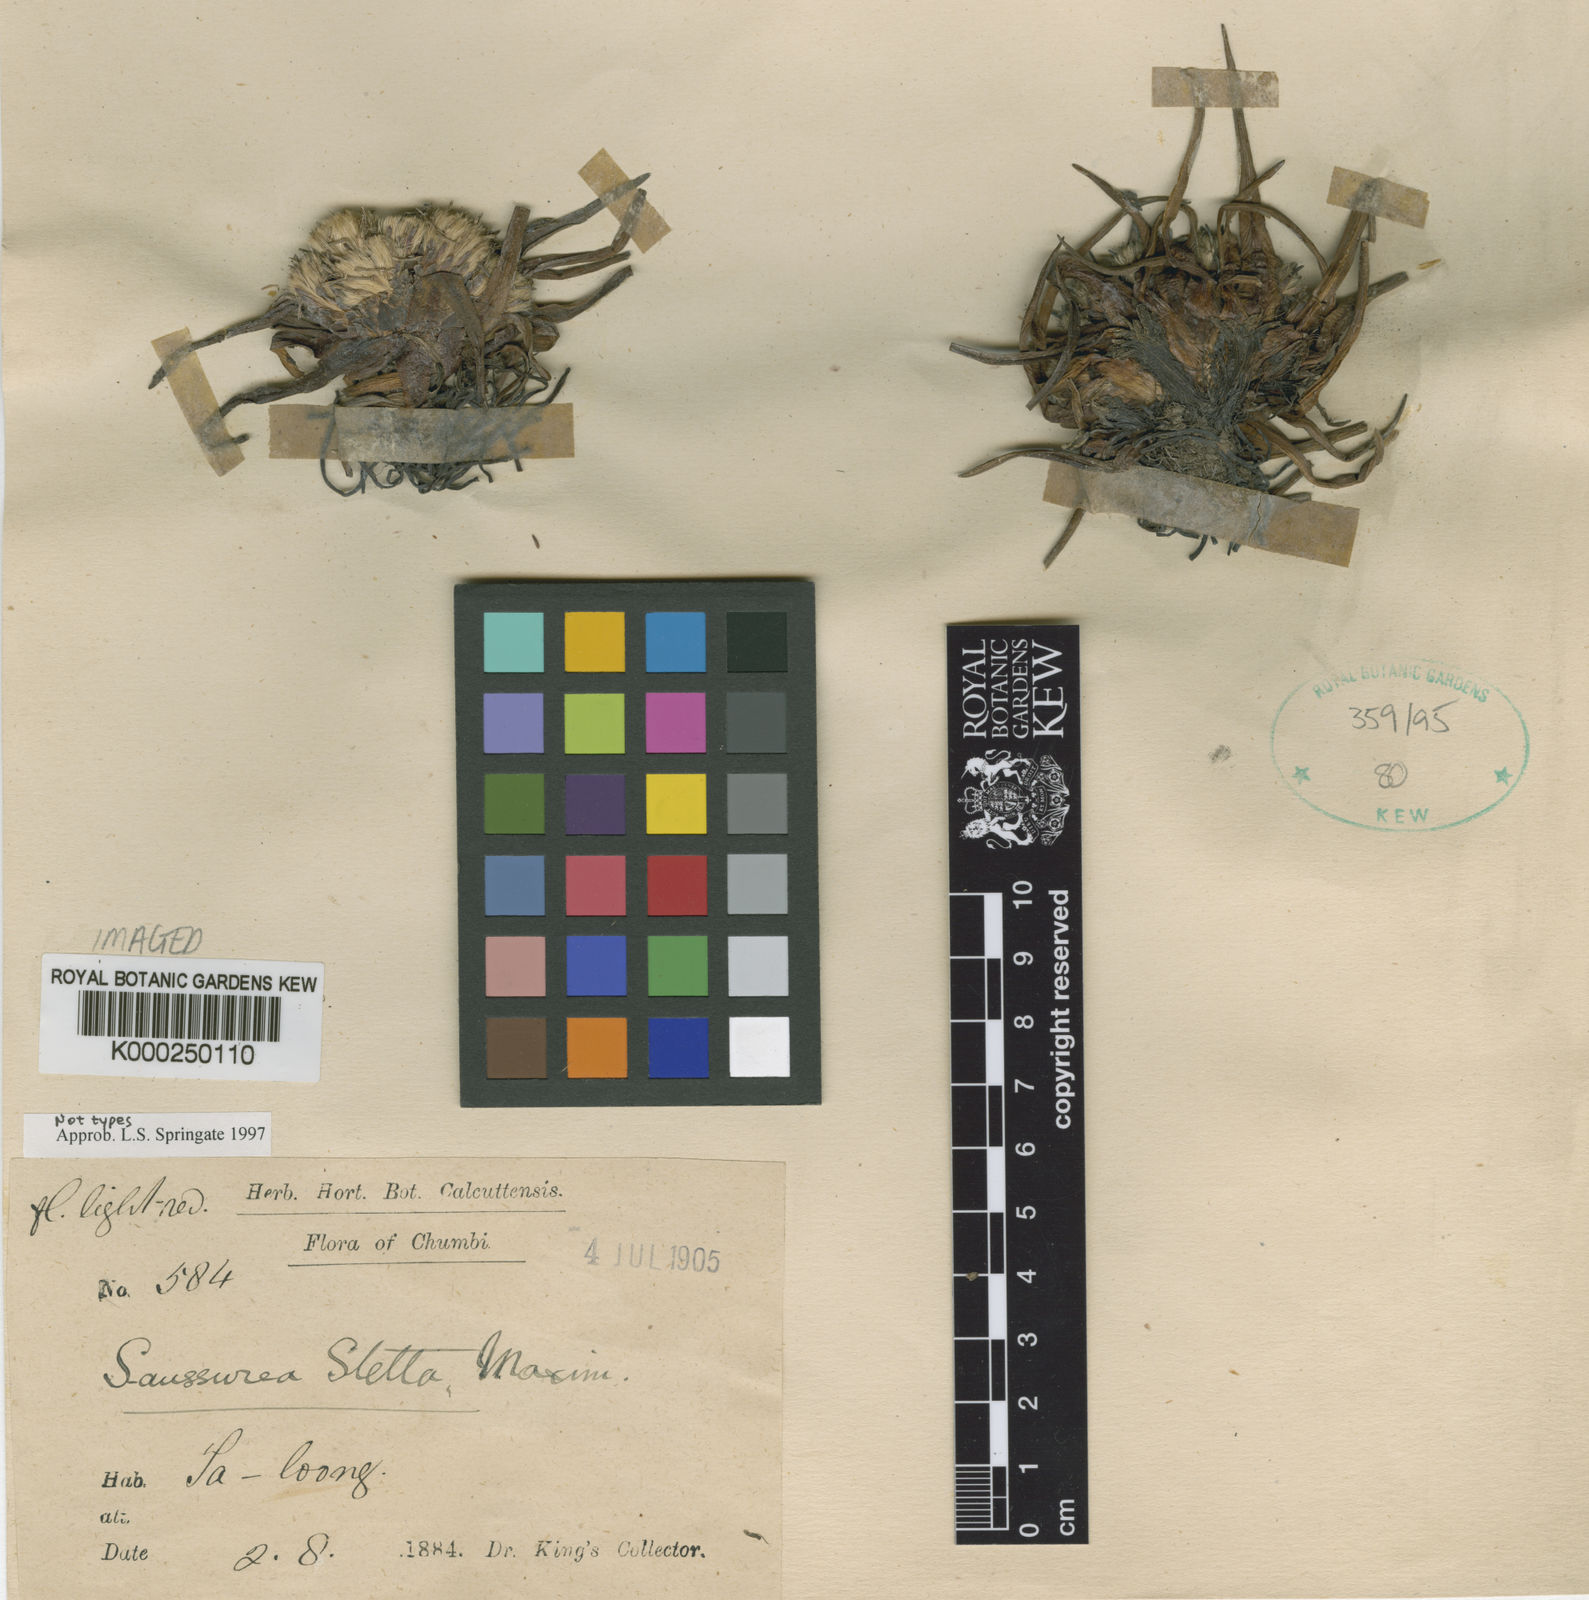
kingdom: Plantae
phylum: Tracheophyta
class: Magnoliopsida
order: Asterales
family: Asteraceae
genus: Saussurea
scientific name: Saussurea stella
